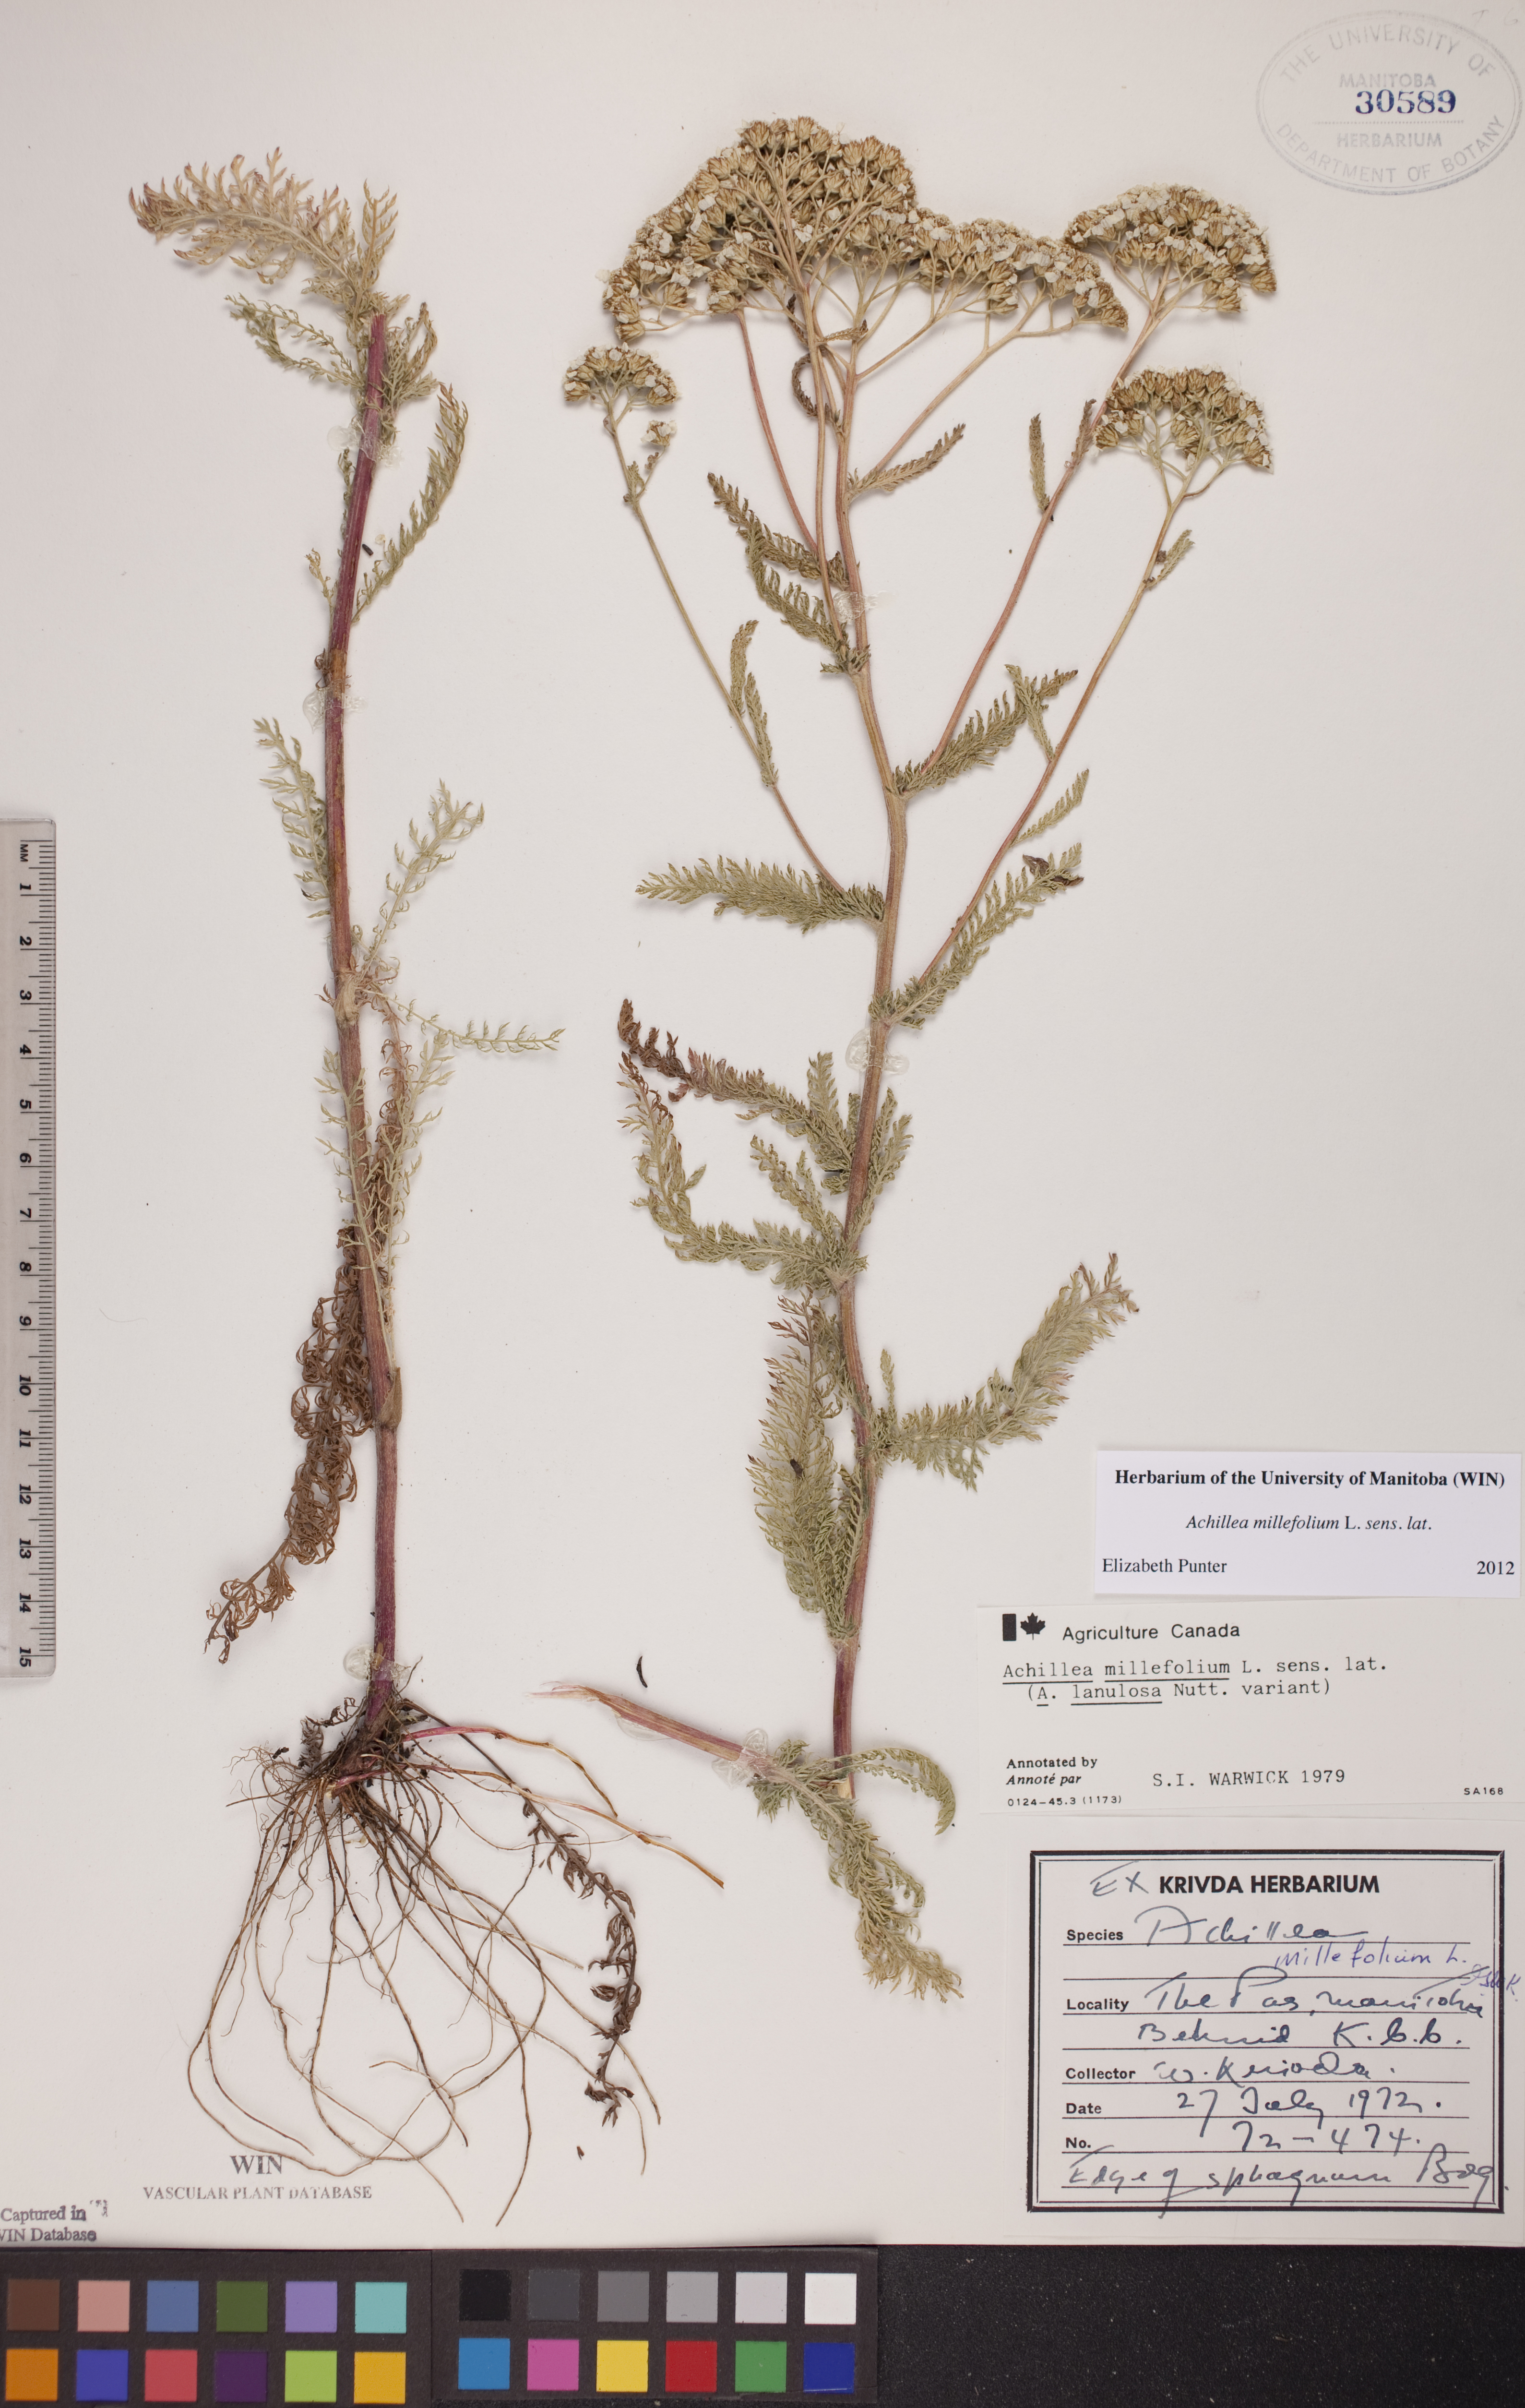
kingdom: Plantae
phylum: Tracheophyta
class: Magnoliopsida
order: Asterales
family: Asteraceae
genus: Achillea
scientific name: Achillea millefolium
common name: Yarrow
